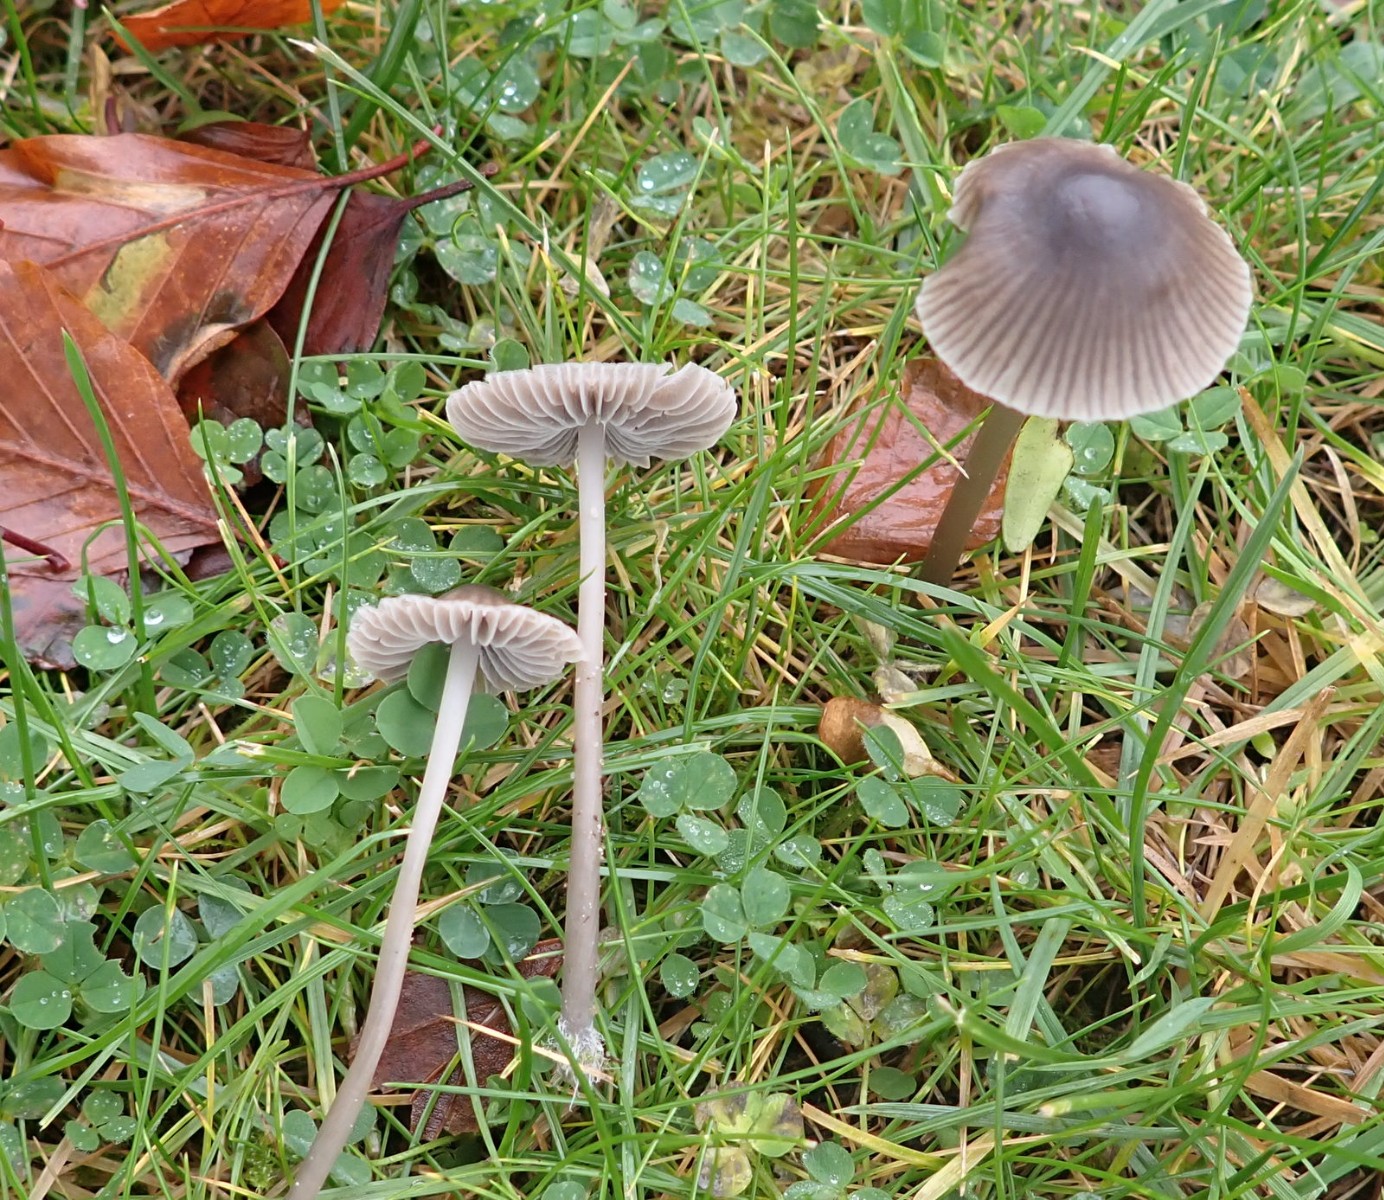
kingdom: Fungi
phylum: Basidiomycota
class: Agaricomycetes
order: Agaricales
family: Mycenaceae
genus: Mycena
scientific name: Mycena aetites
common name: plæne-huesvamp
